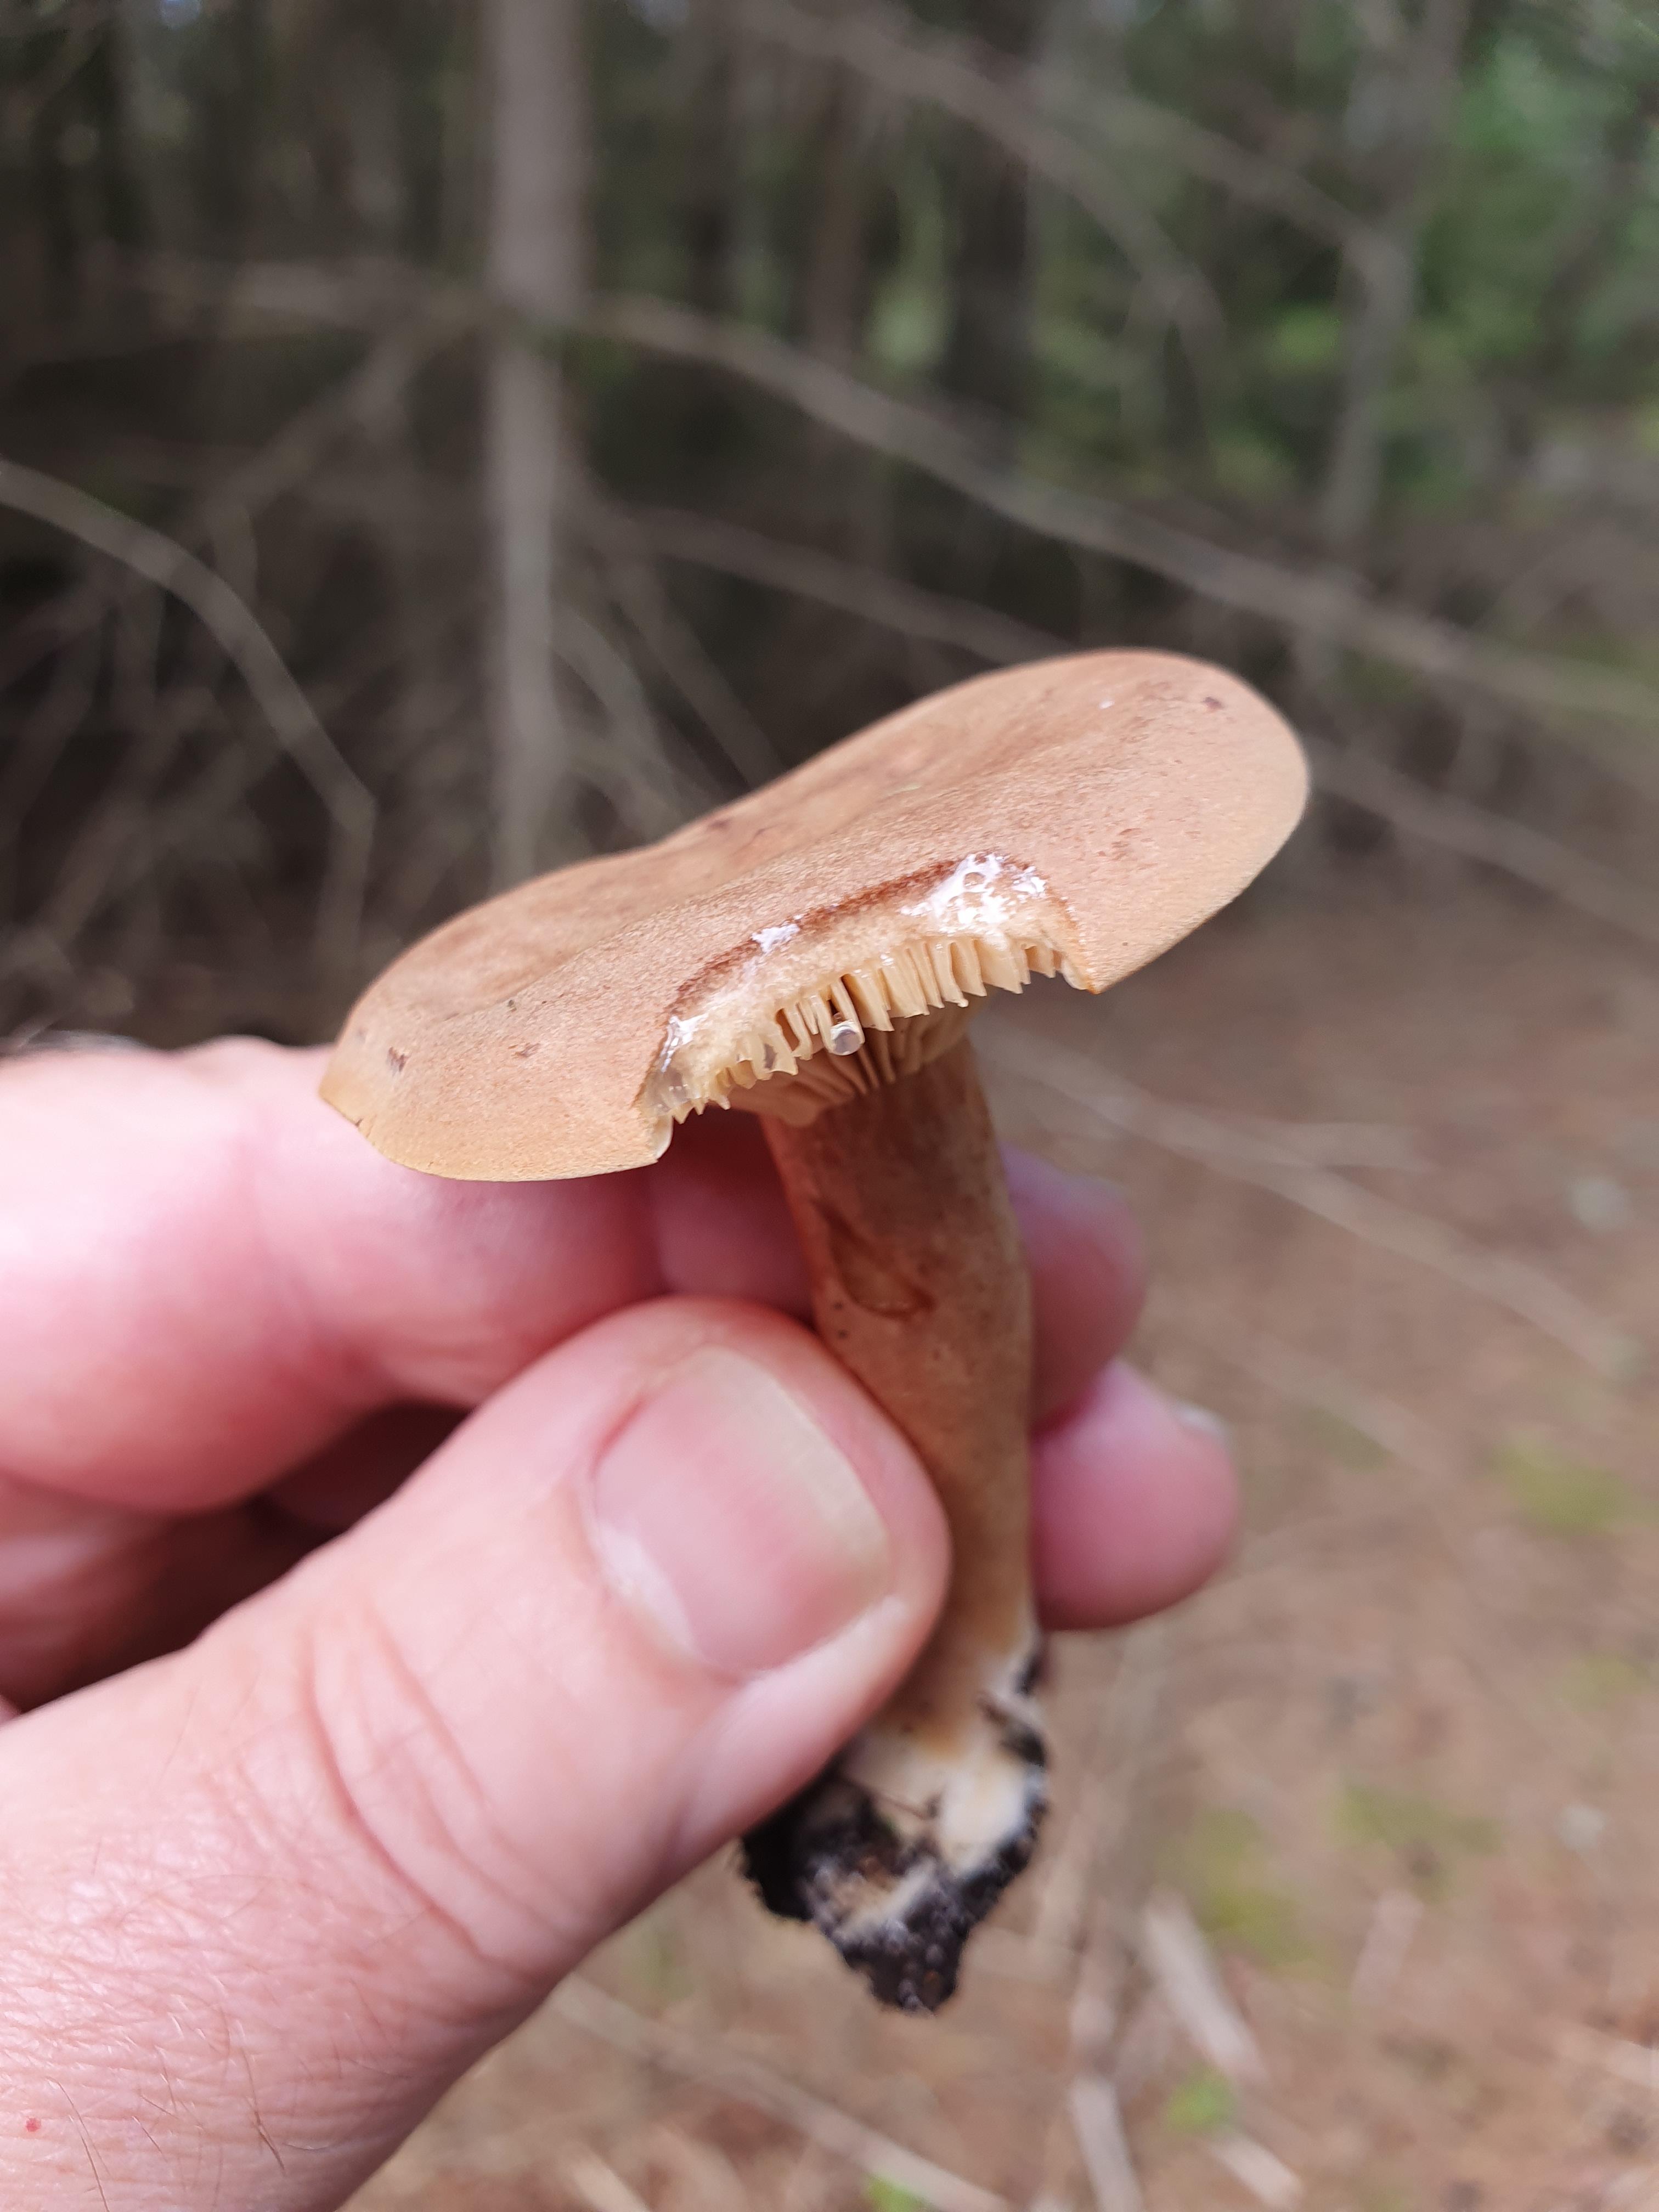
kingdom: Fungi
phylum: Basidiomycota
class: Agaricomycetes
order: Russulales
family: Russulaceae
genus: Lactarius
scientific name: Lactarius helvus
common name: mose-mælkehat
